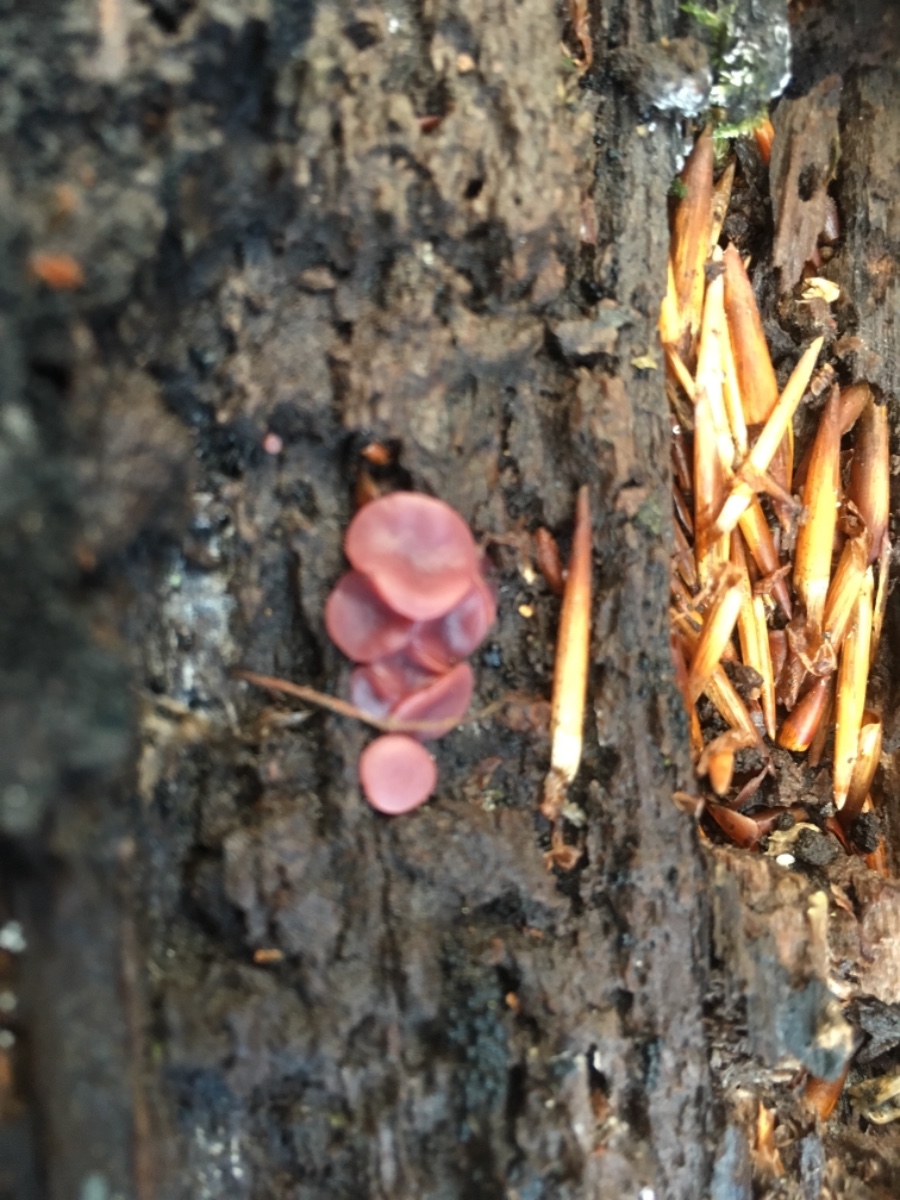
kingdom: Fungi
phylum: Ascomycota
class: Leotiomycetes
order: Helotiales
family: Gelatinodiscaceae
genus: Ascocoryne
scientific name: Ascocoryne cylichnium
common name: stor sejskive
